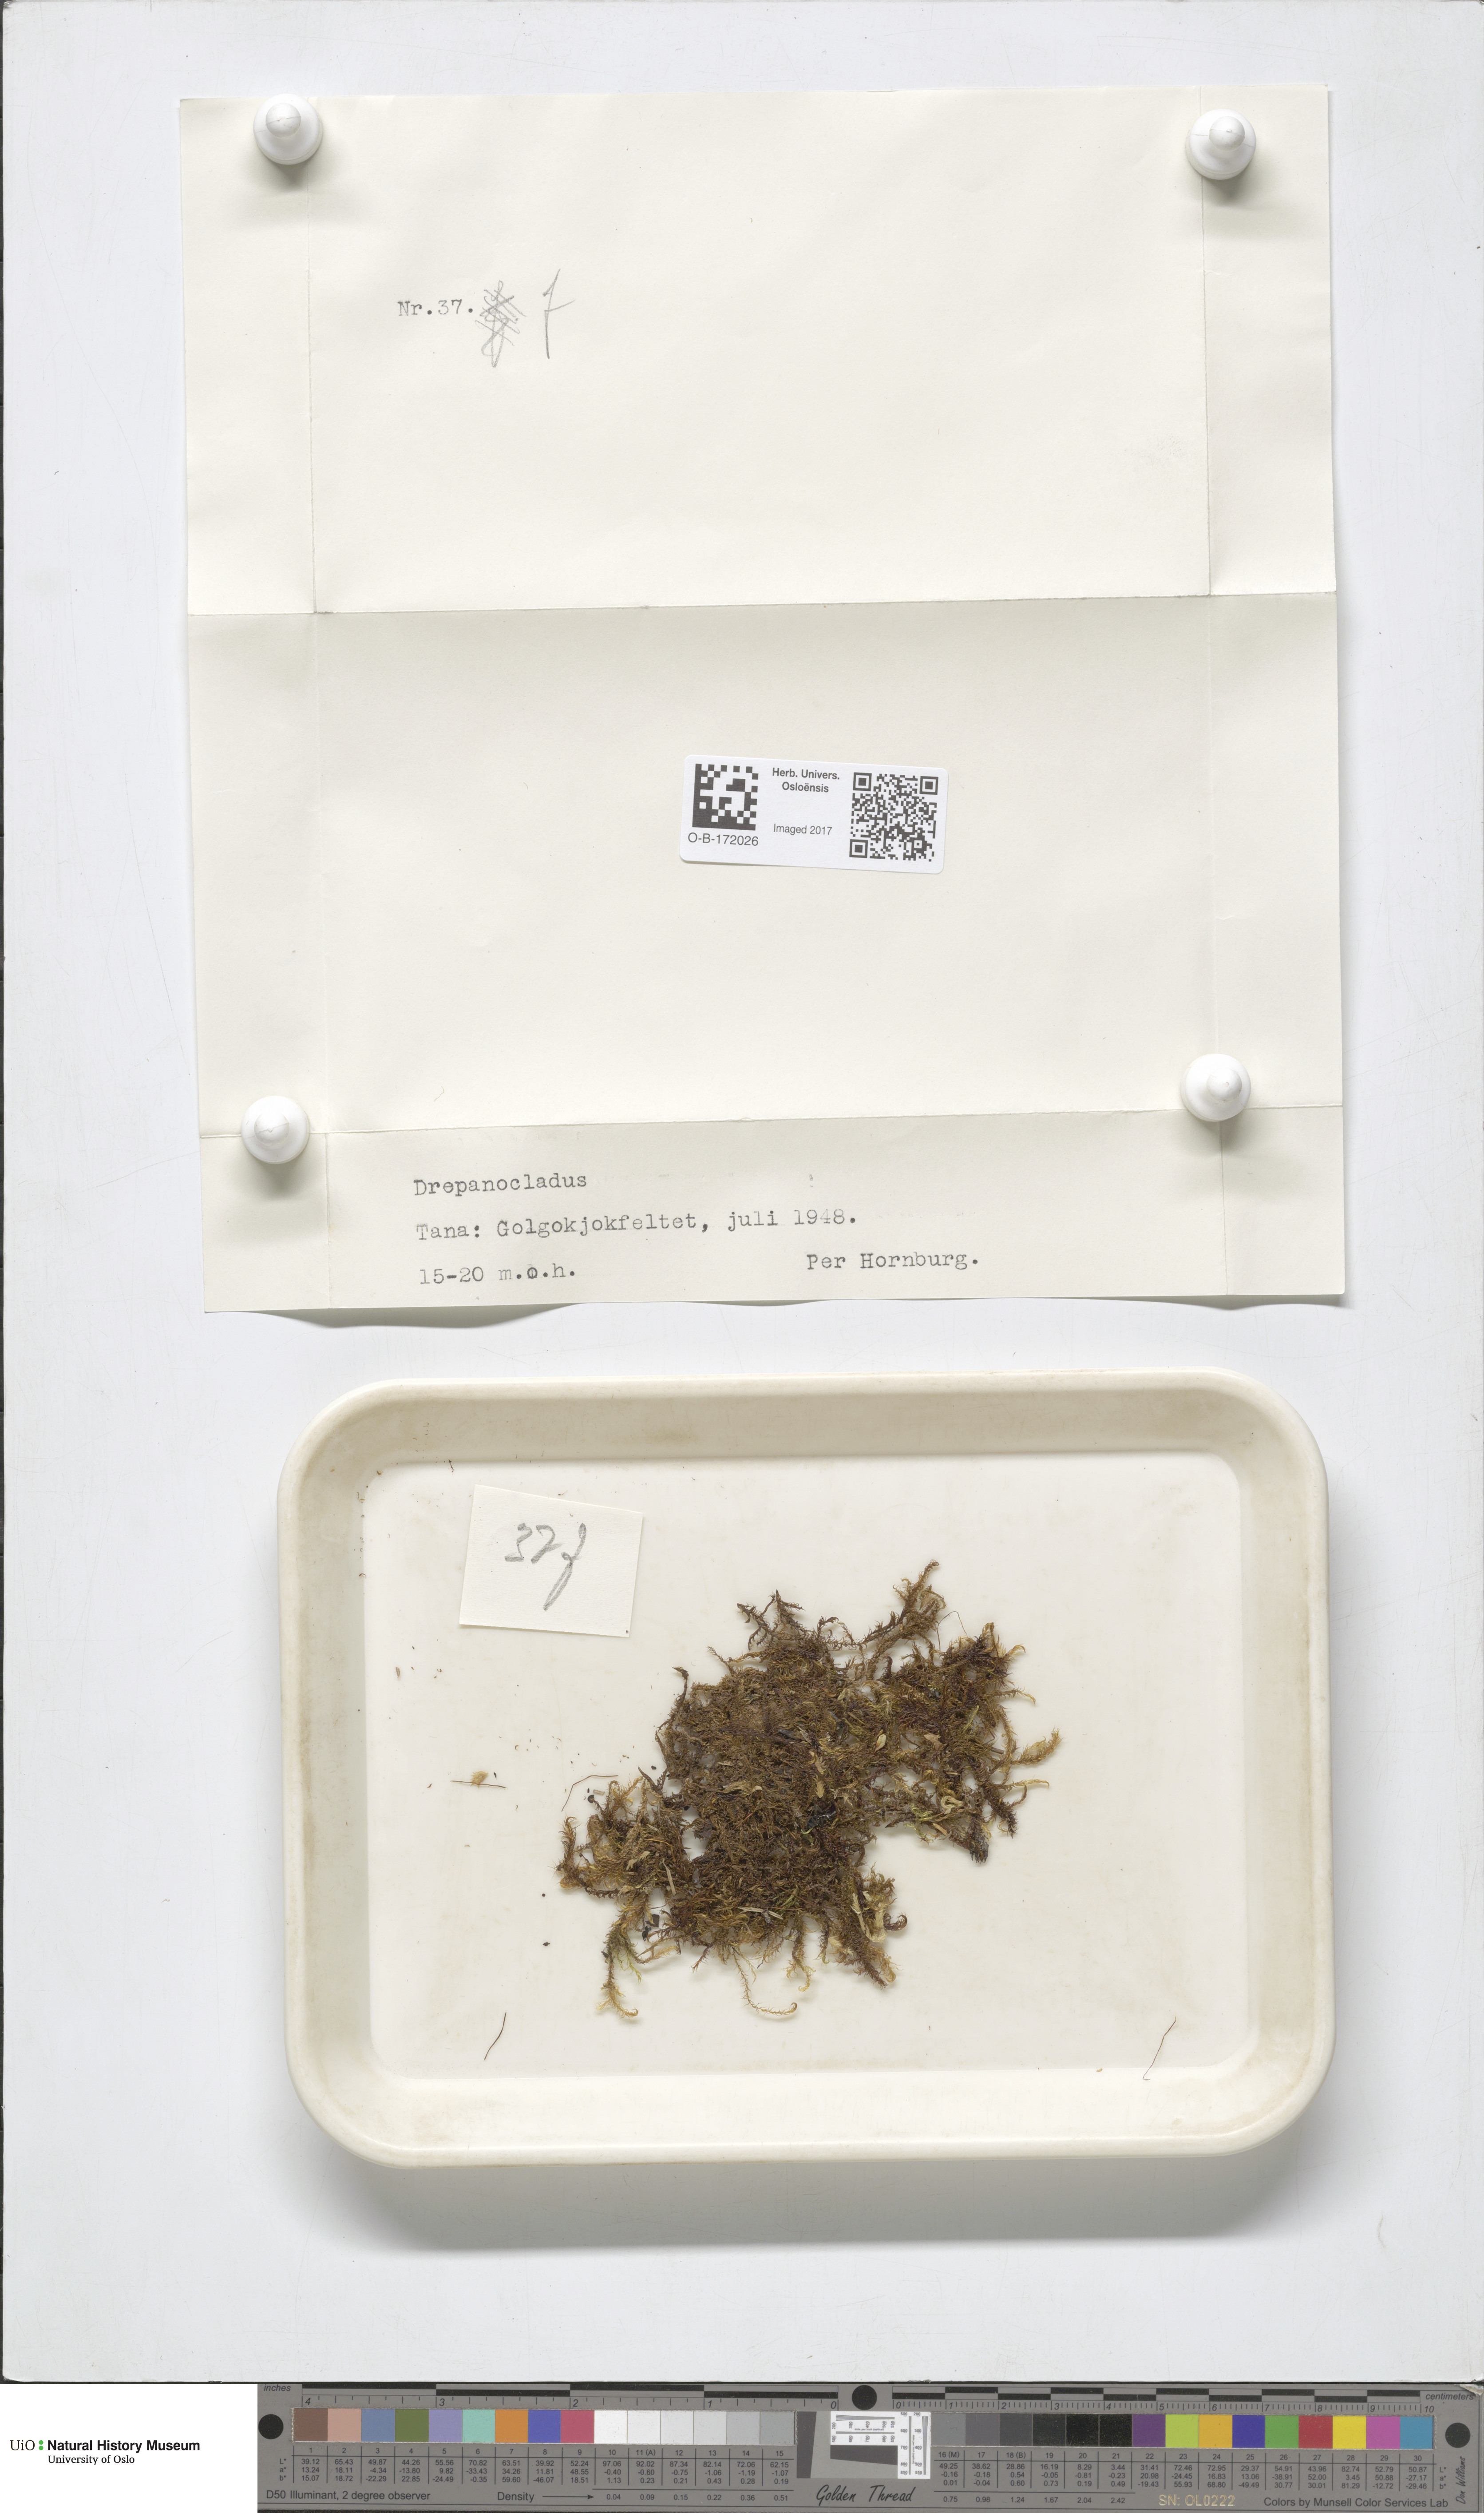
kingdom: Plantae
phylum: Bryophyta
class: Bryopsida
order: Hypnales
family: Amblystegiaceae
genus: Drepanocladus
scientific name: Drepanocladus sordidus
